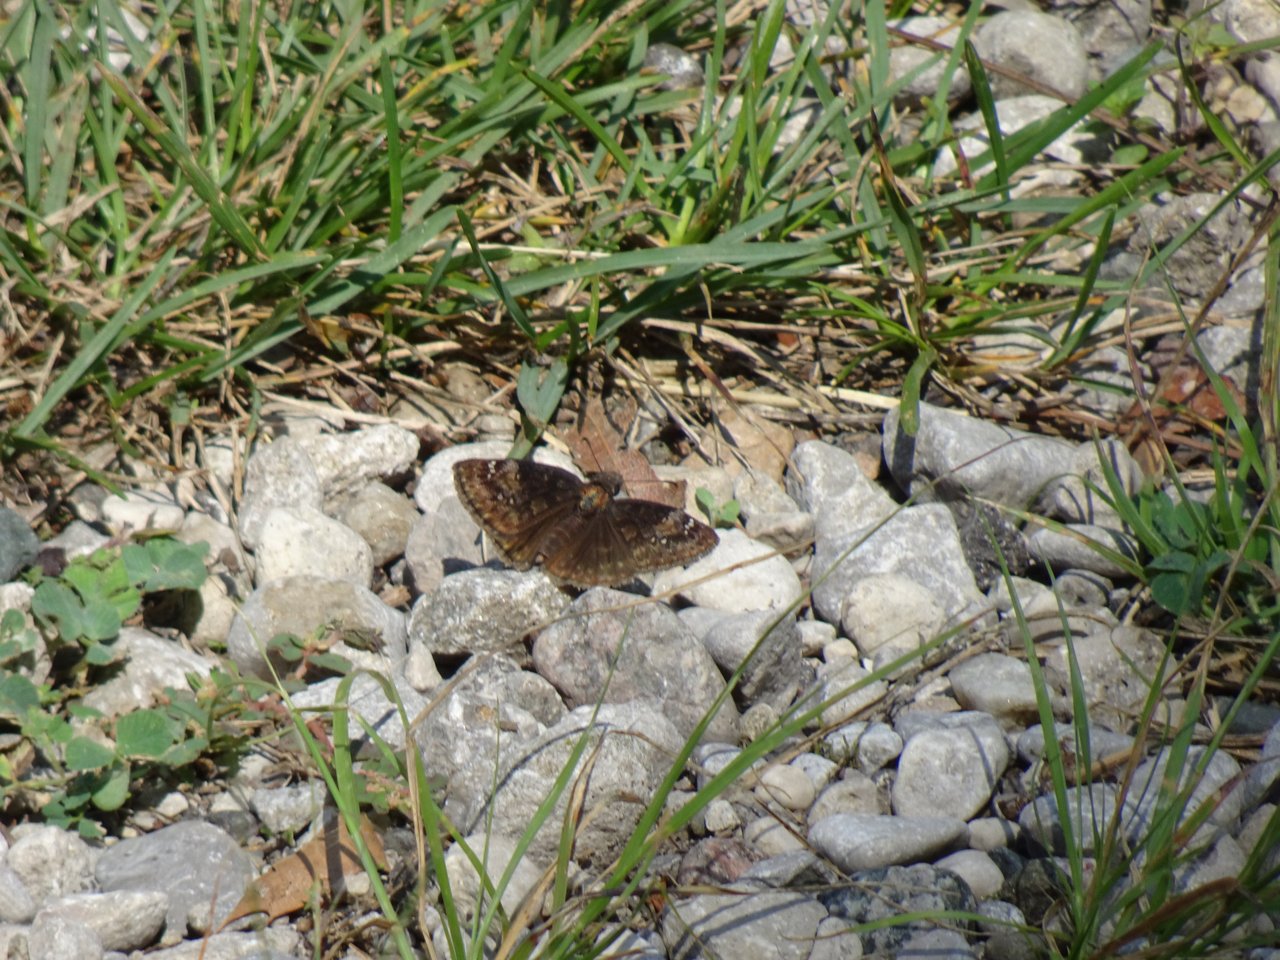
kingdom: Animalia
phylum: Arthropoda
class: Insecta
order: Lepidoptera
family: Hesperiidae
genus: Gesta
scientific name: Gesta
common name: Wild Indigo Duskywing
